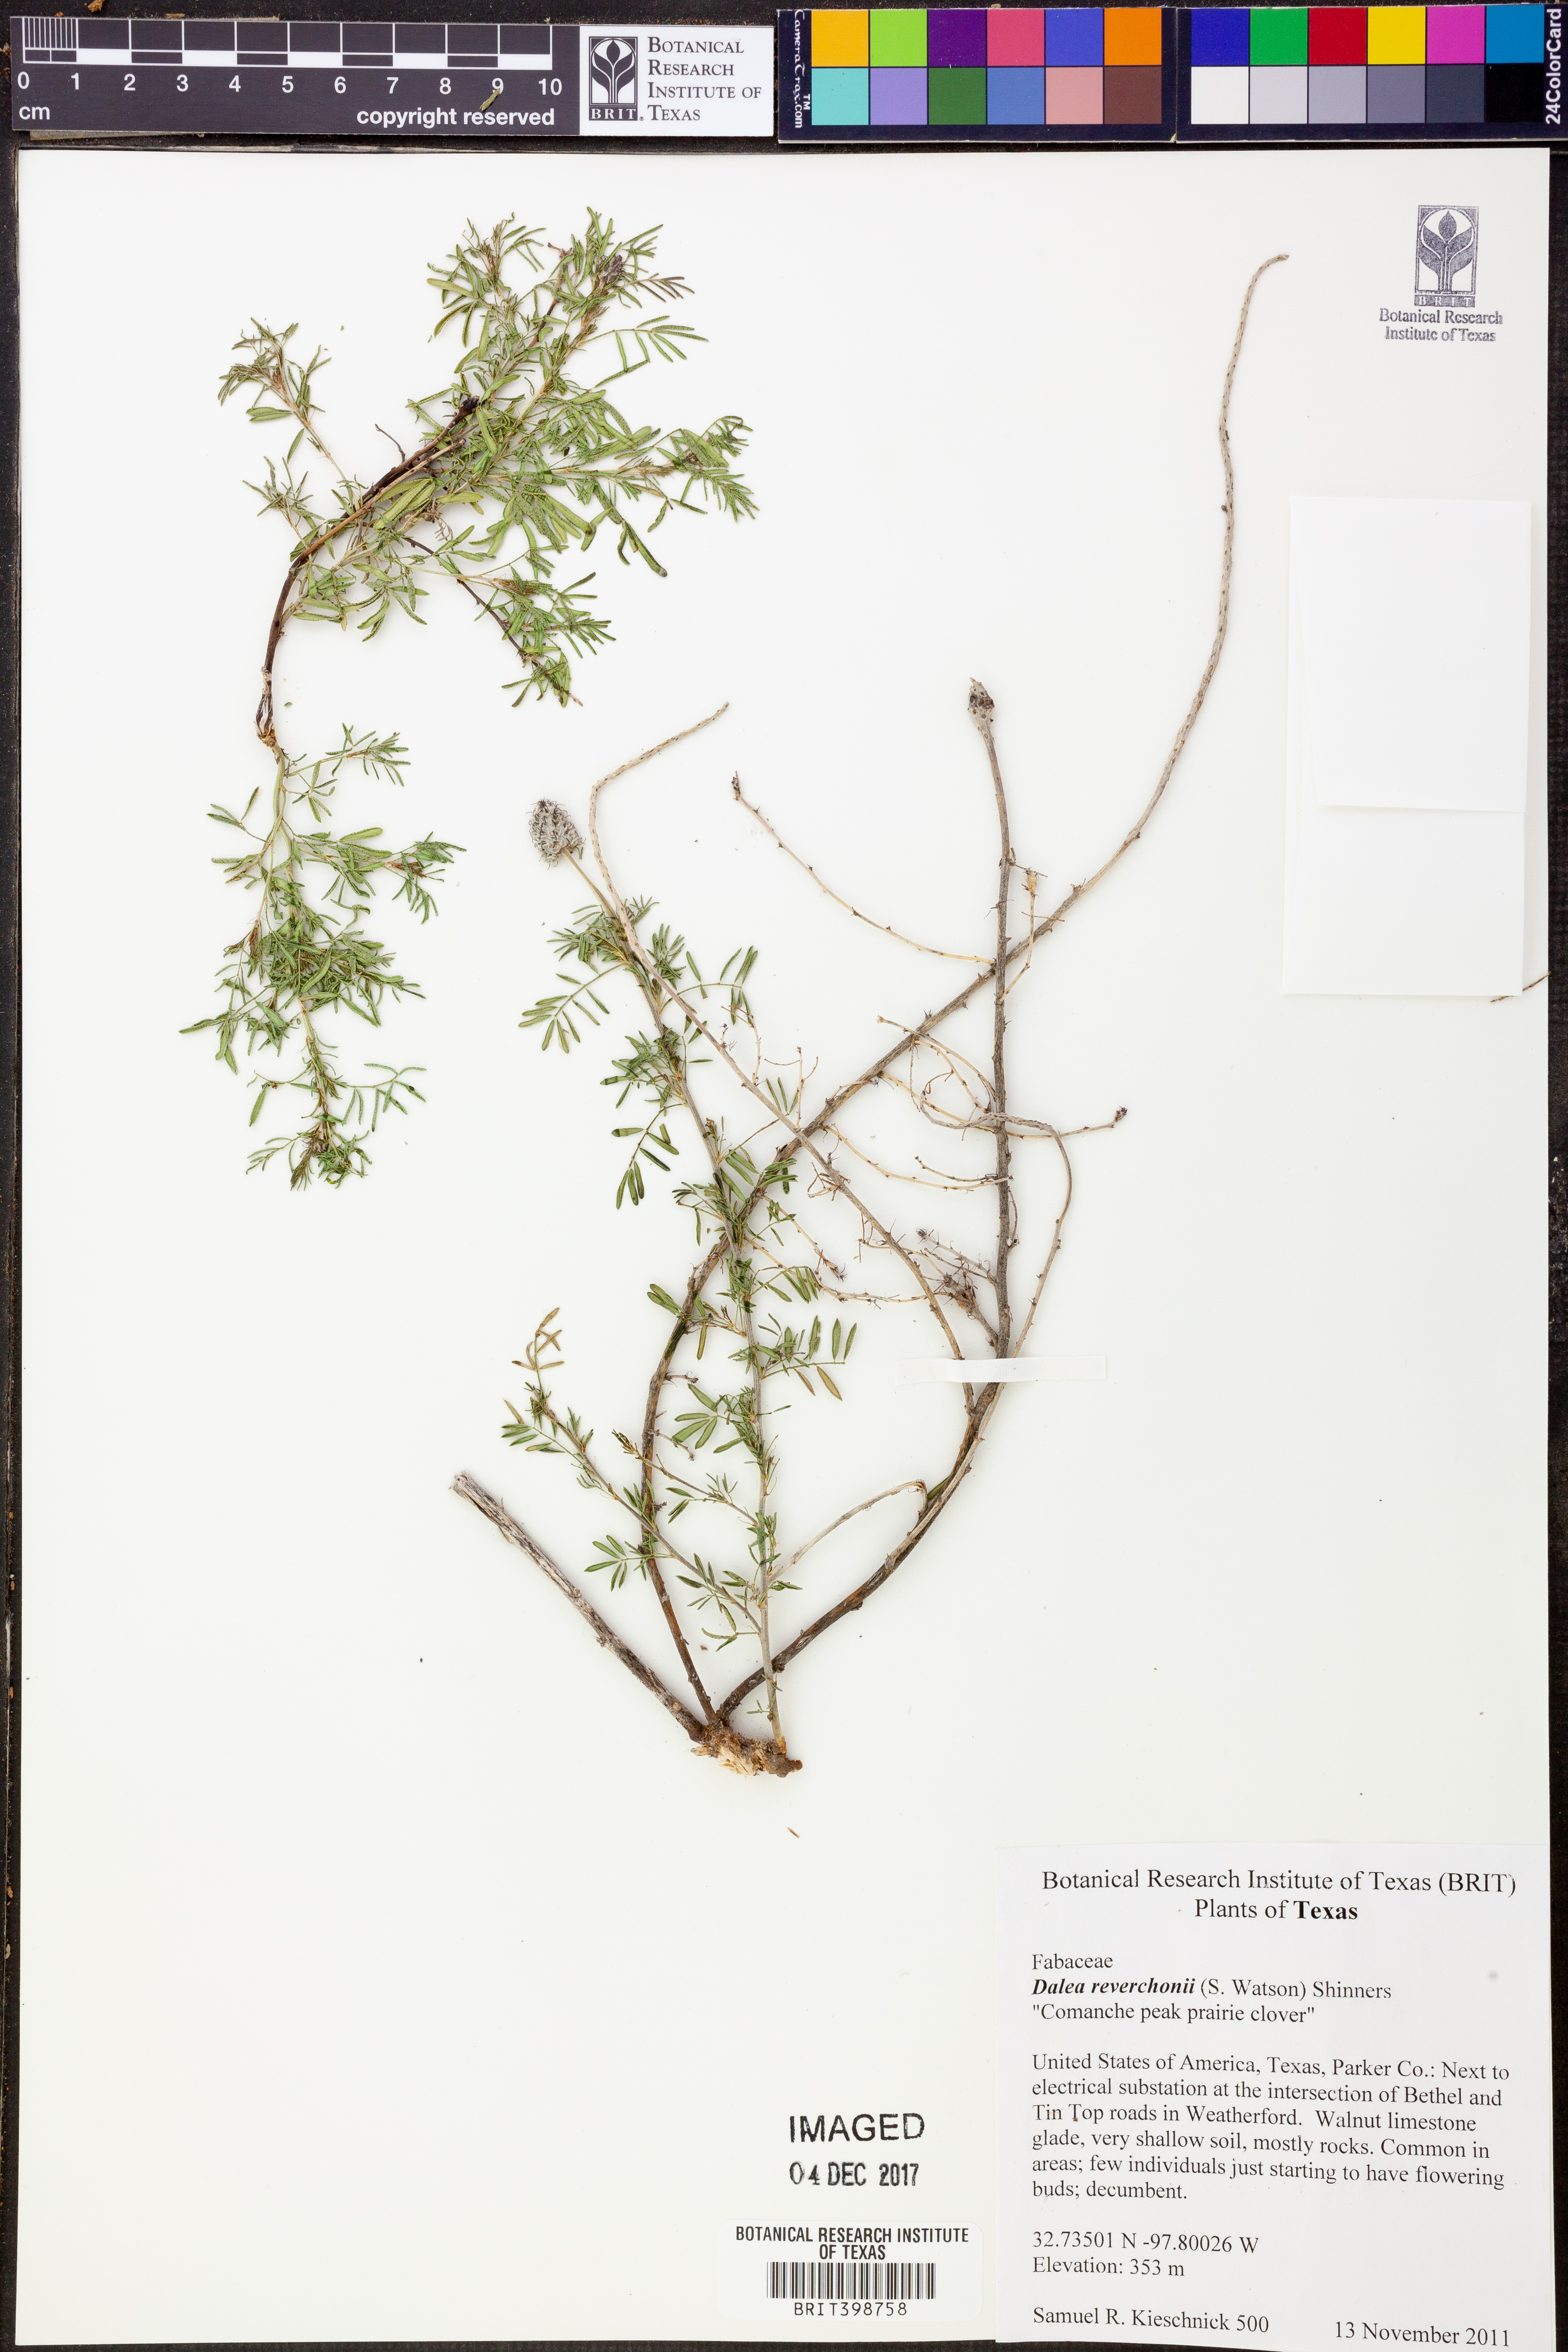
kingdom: Plantae
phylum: Tracheophyta
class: Magnoliopsida
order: Fabales
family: Fabaceae
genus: Dalea
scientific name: Dalea reverchonii
